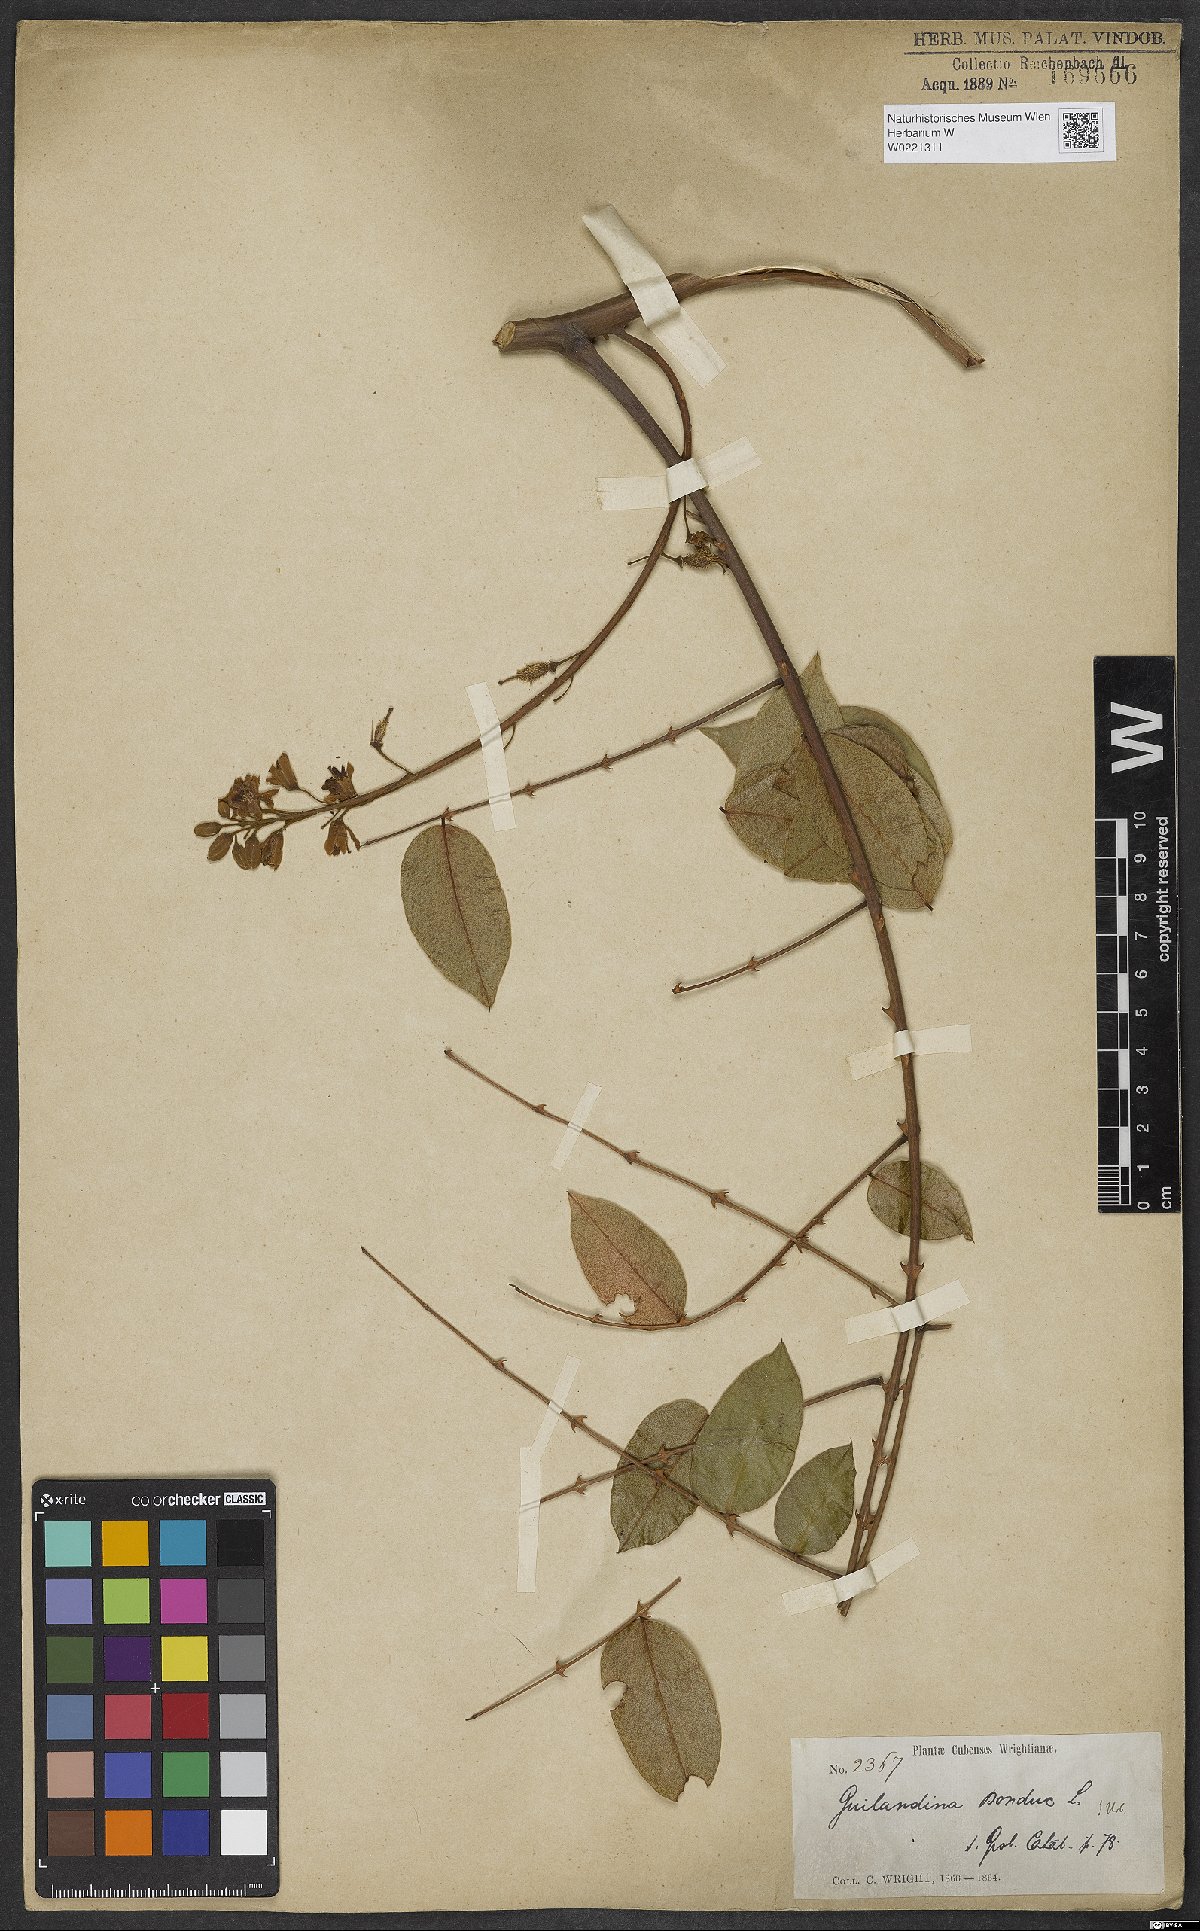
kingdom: Plantae
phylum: Tracheophyta
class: Magnoliopsida
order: Fabales
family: Fabaceae
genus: Guilandina
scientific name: Guilandina bonduc
